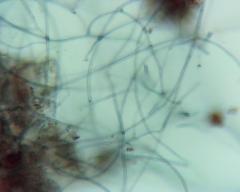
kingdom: Fungi
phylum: Basidiomycota
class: Agaricomycetes
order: Atheliales
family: Atheliaceae
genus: Byssocorticium
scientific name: Byssocorticium atrovirens
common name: blå førnehinde
